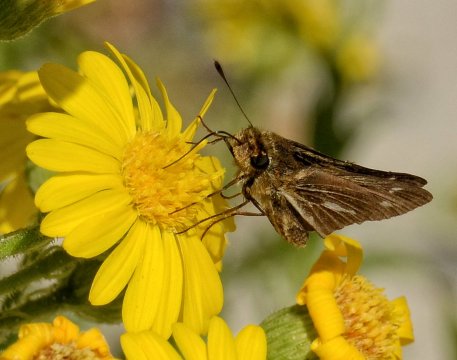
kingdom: Animalia
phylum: Arthropoda
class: Insecta
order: Lepidoptera
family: Hesperiidae
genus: Panoquina
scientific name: Panoquina panoquin
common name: Salt Marsh Skipper
